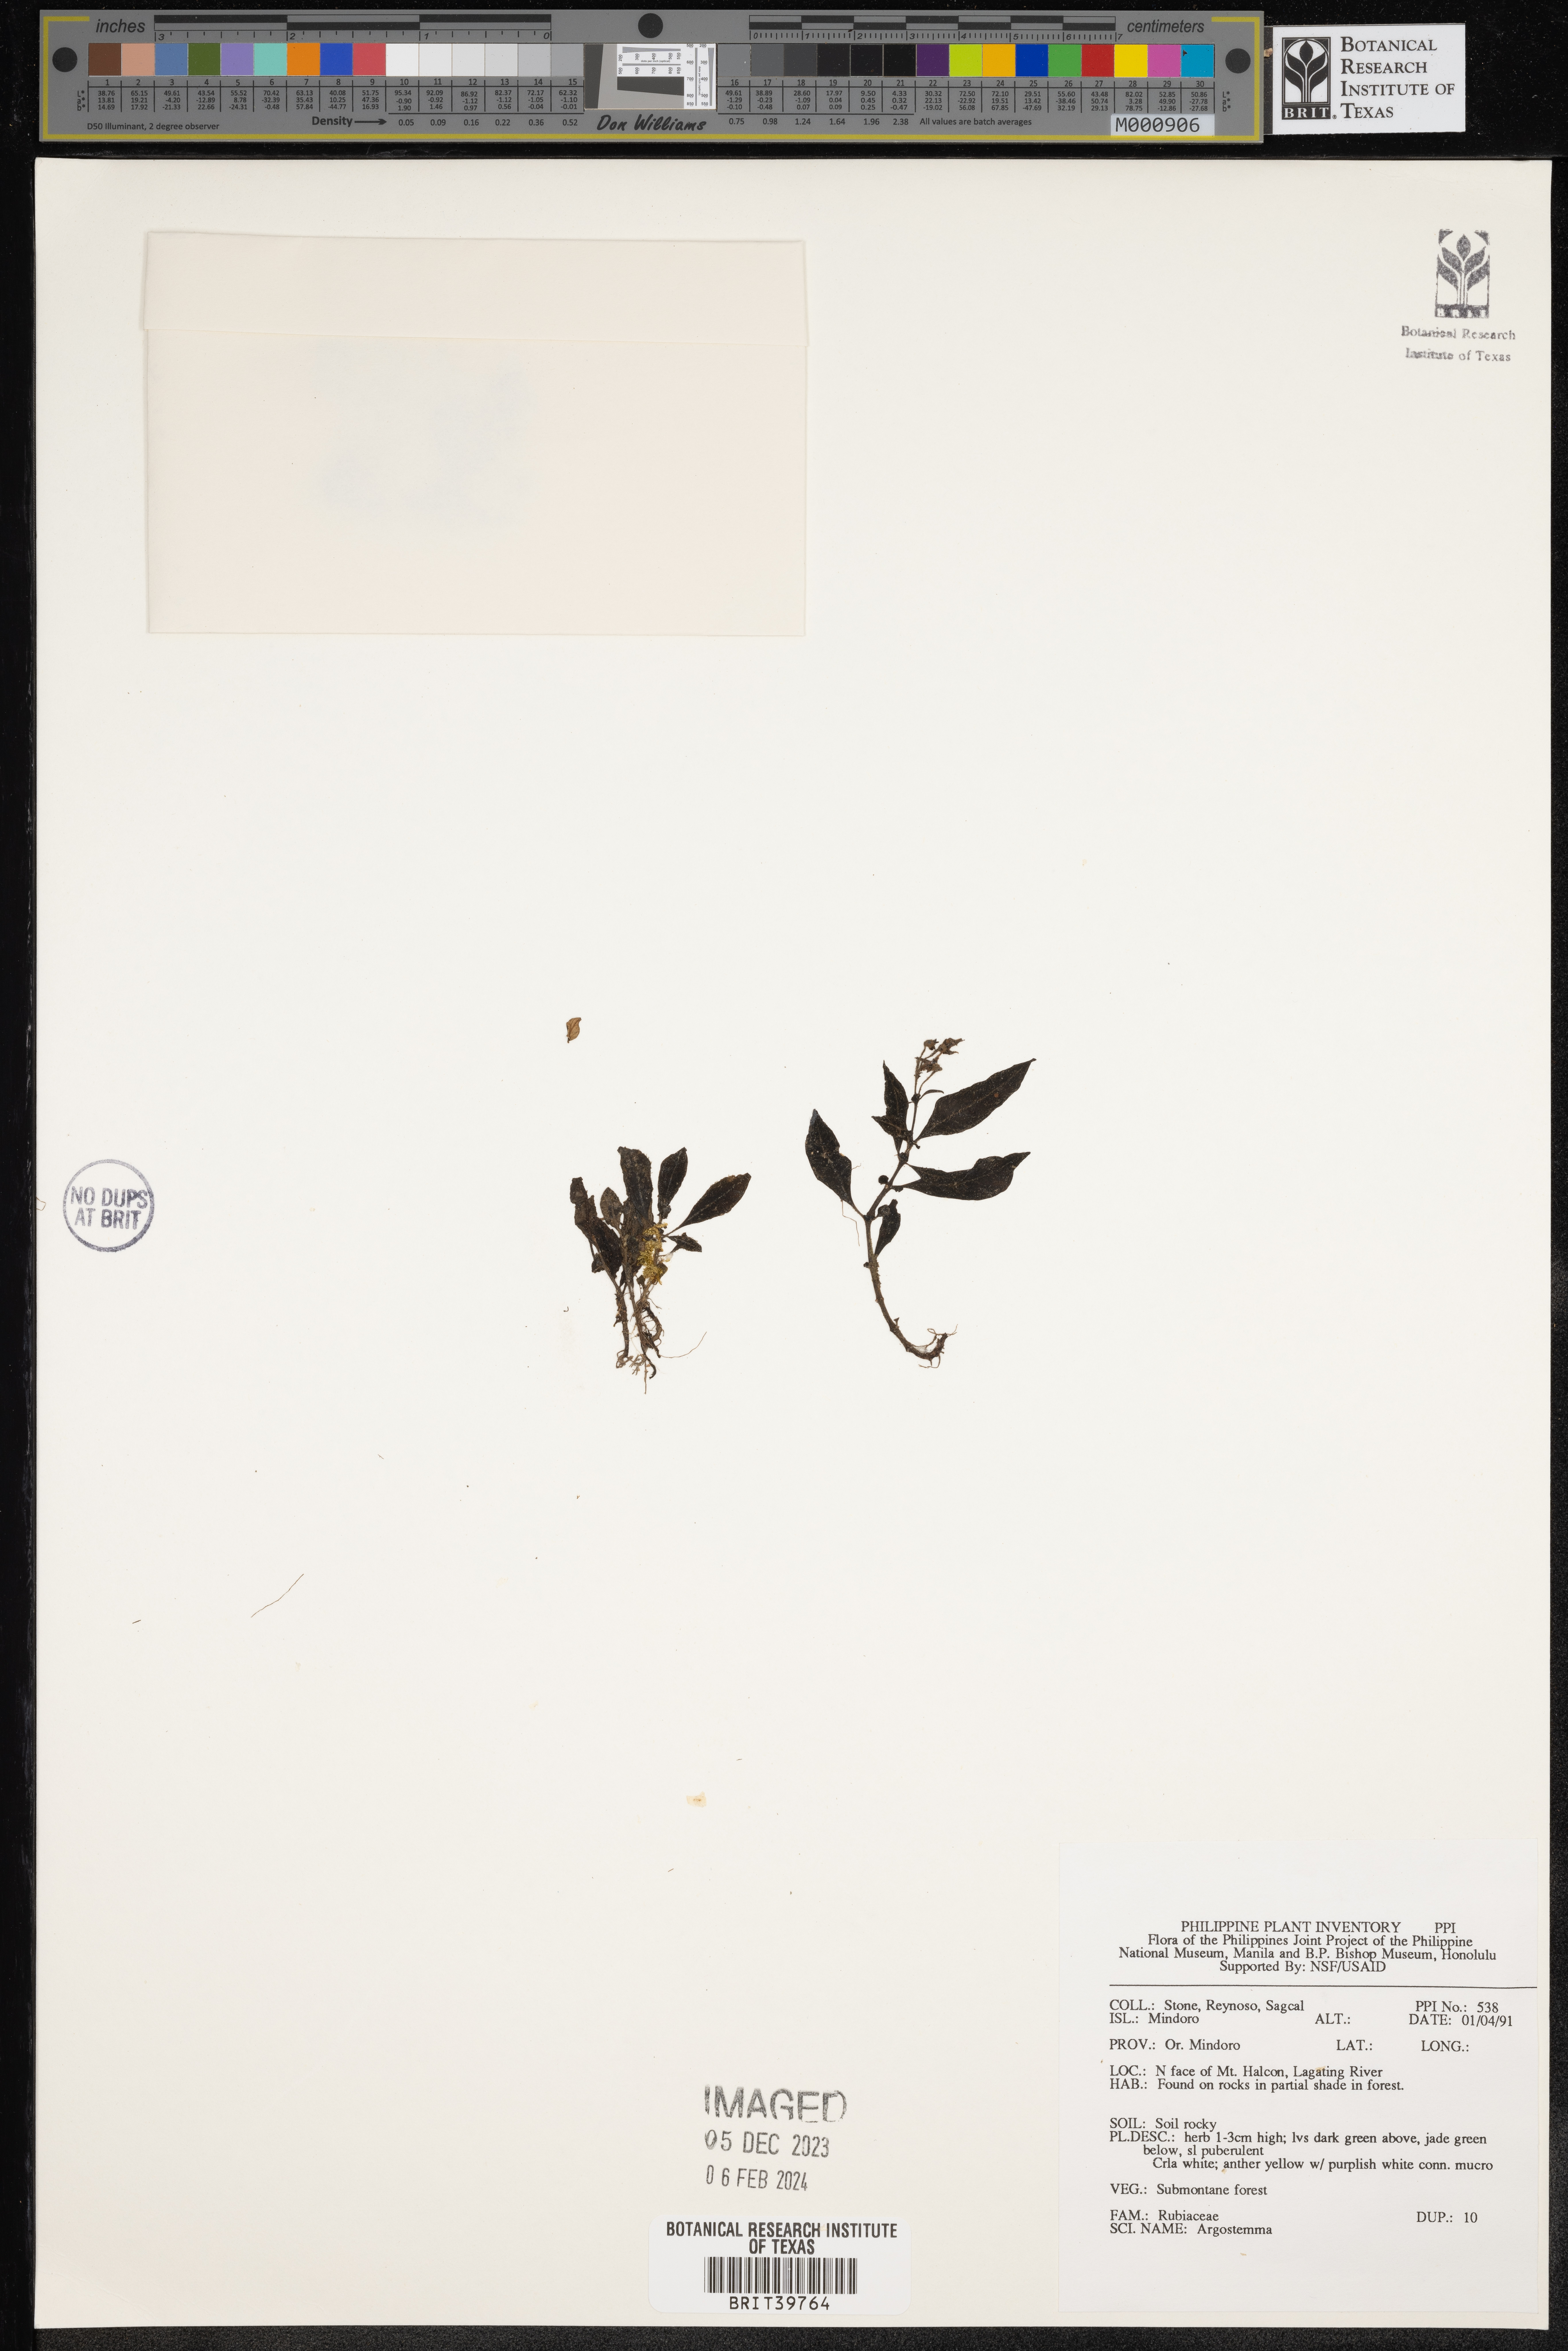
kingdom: Plantae
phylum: Tracheophyta
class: Magnoliopsida
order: Gentianales
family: Rubiaceae
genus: Argostemma
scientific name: Argostemma
